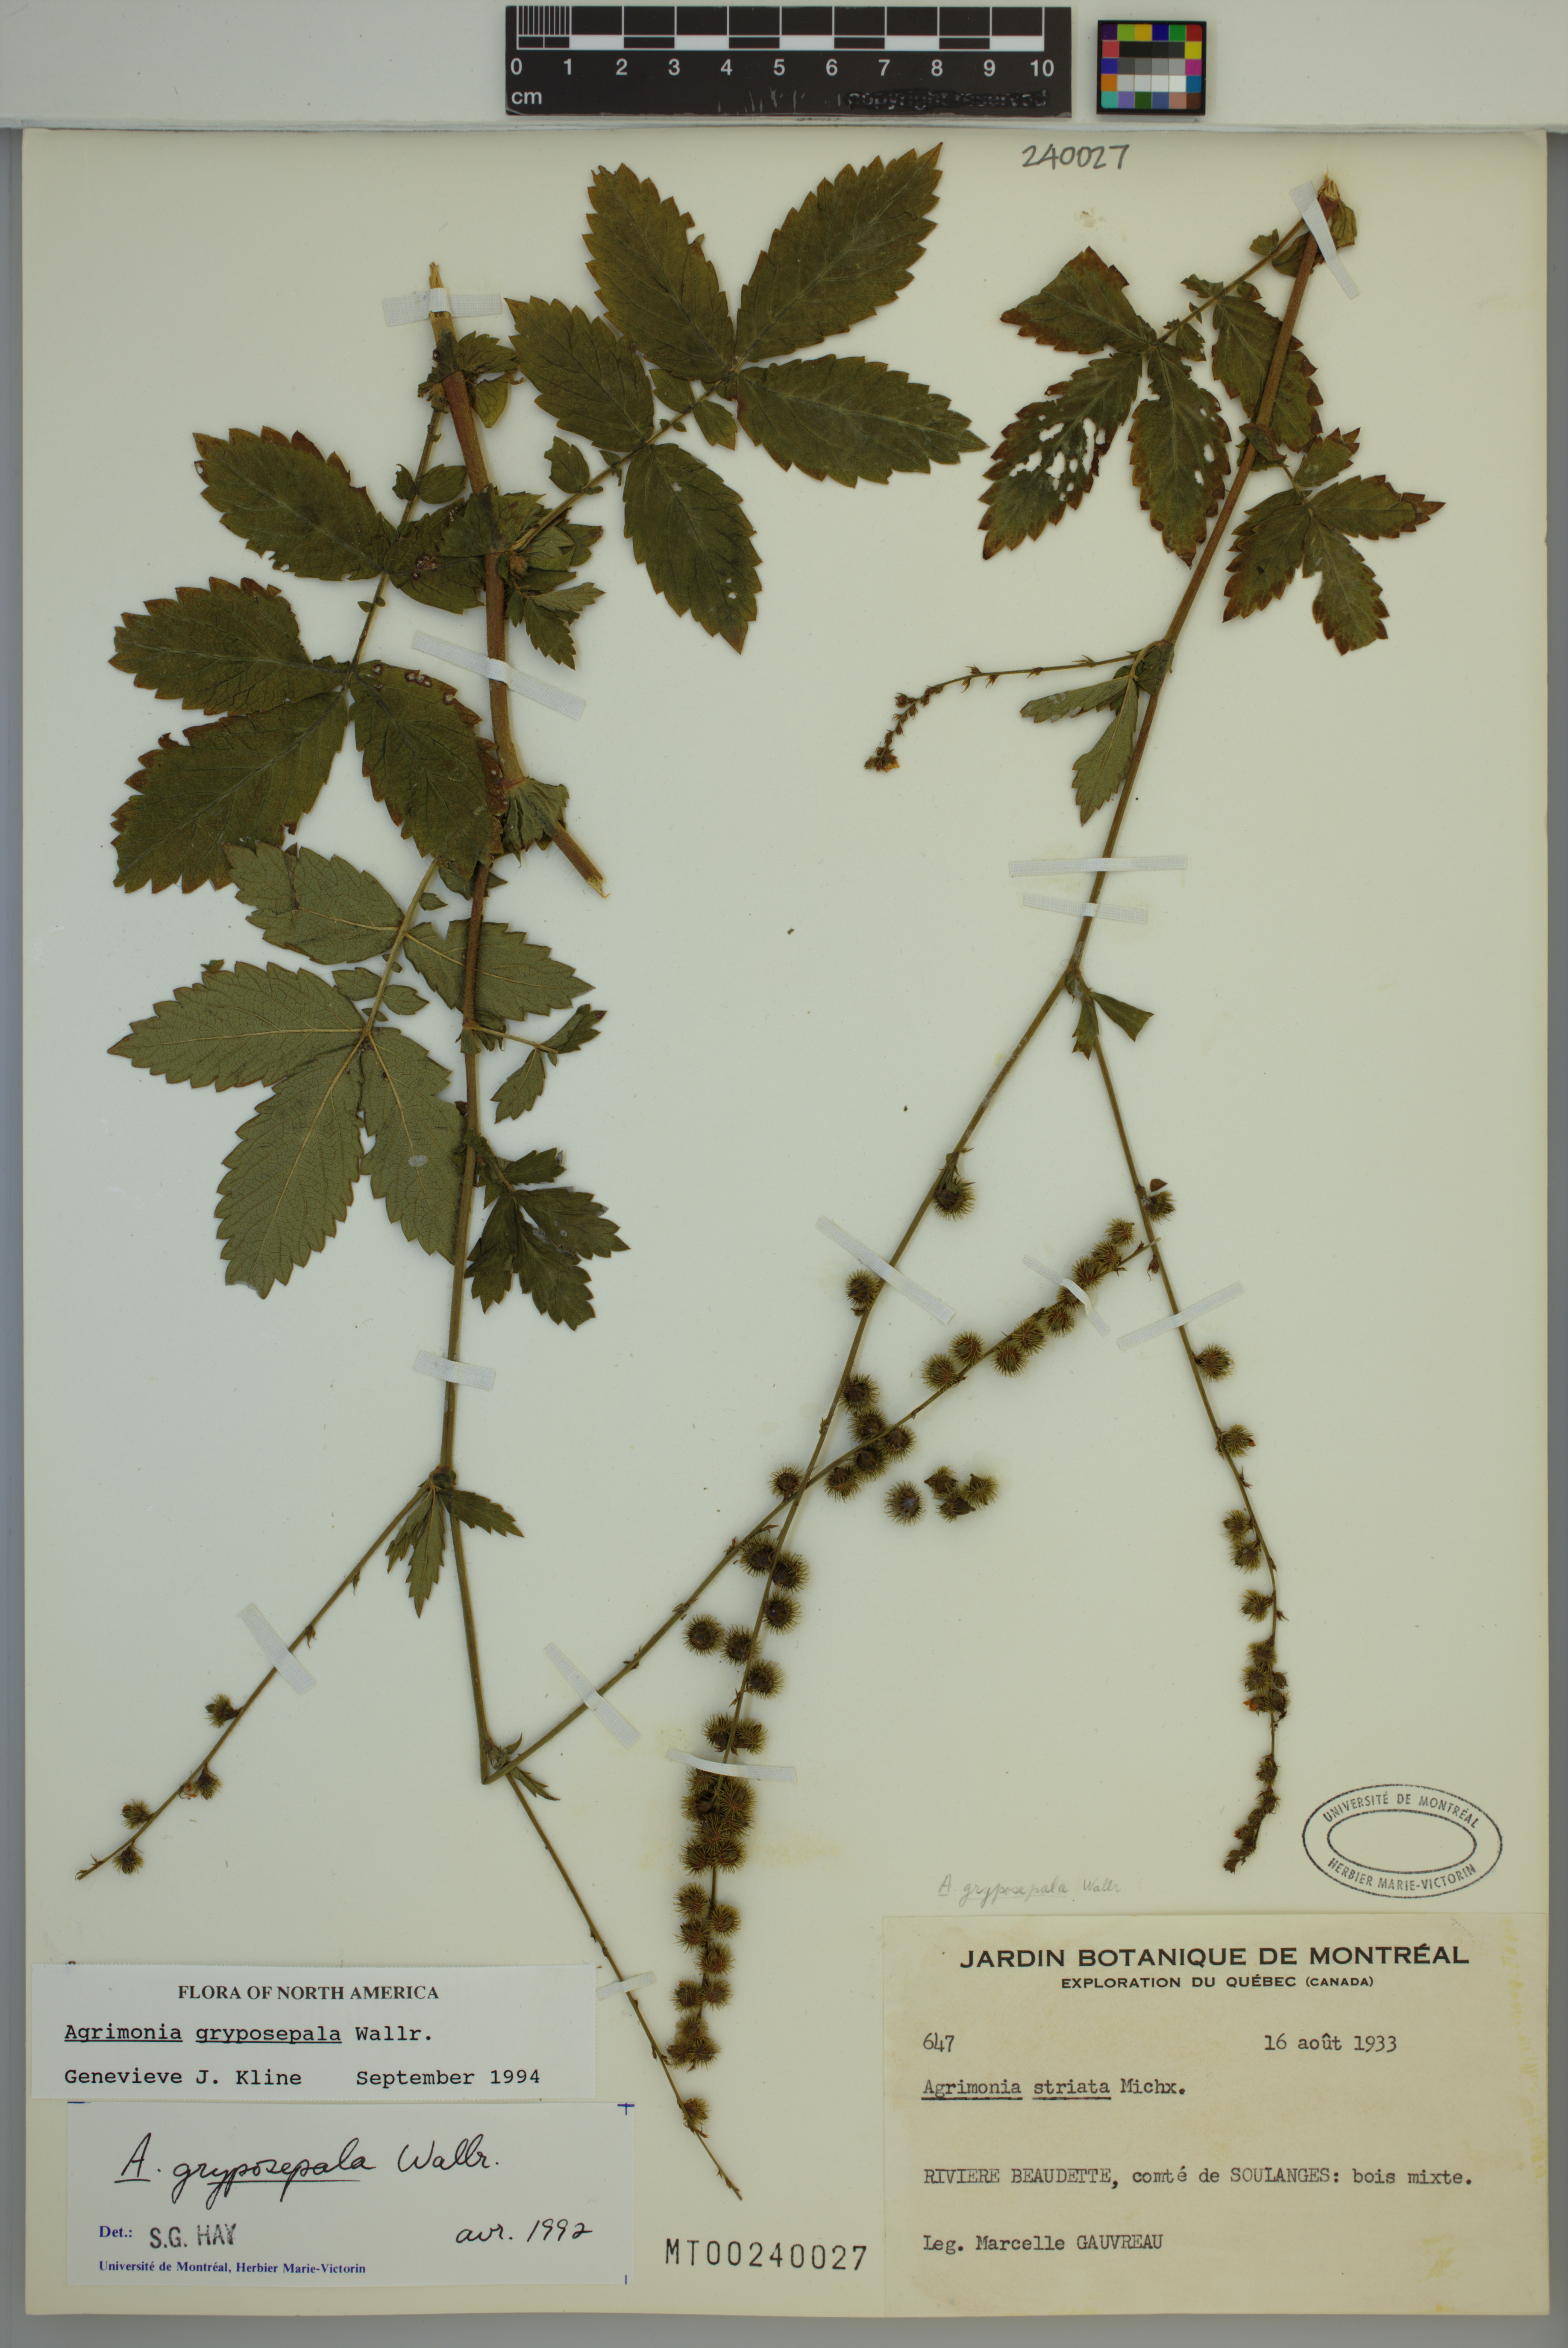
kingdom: Plantae
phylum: Tracheophyta
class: Magnoliopsida
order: Rosales
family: Rosaceae
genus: Agrimonia
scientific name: Agrimonia gryposepala
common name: Common agrimony
